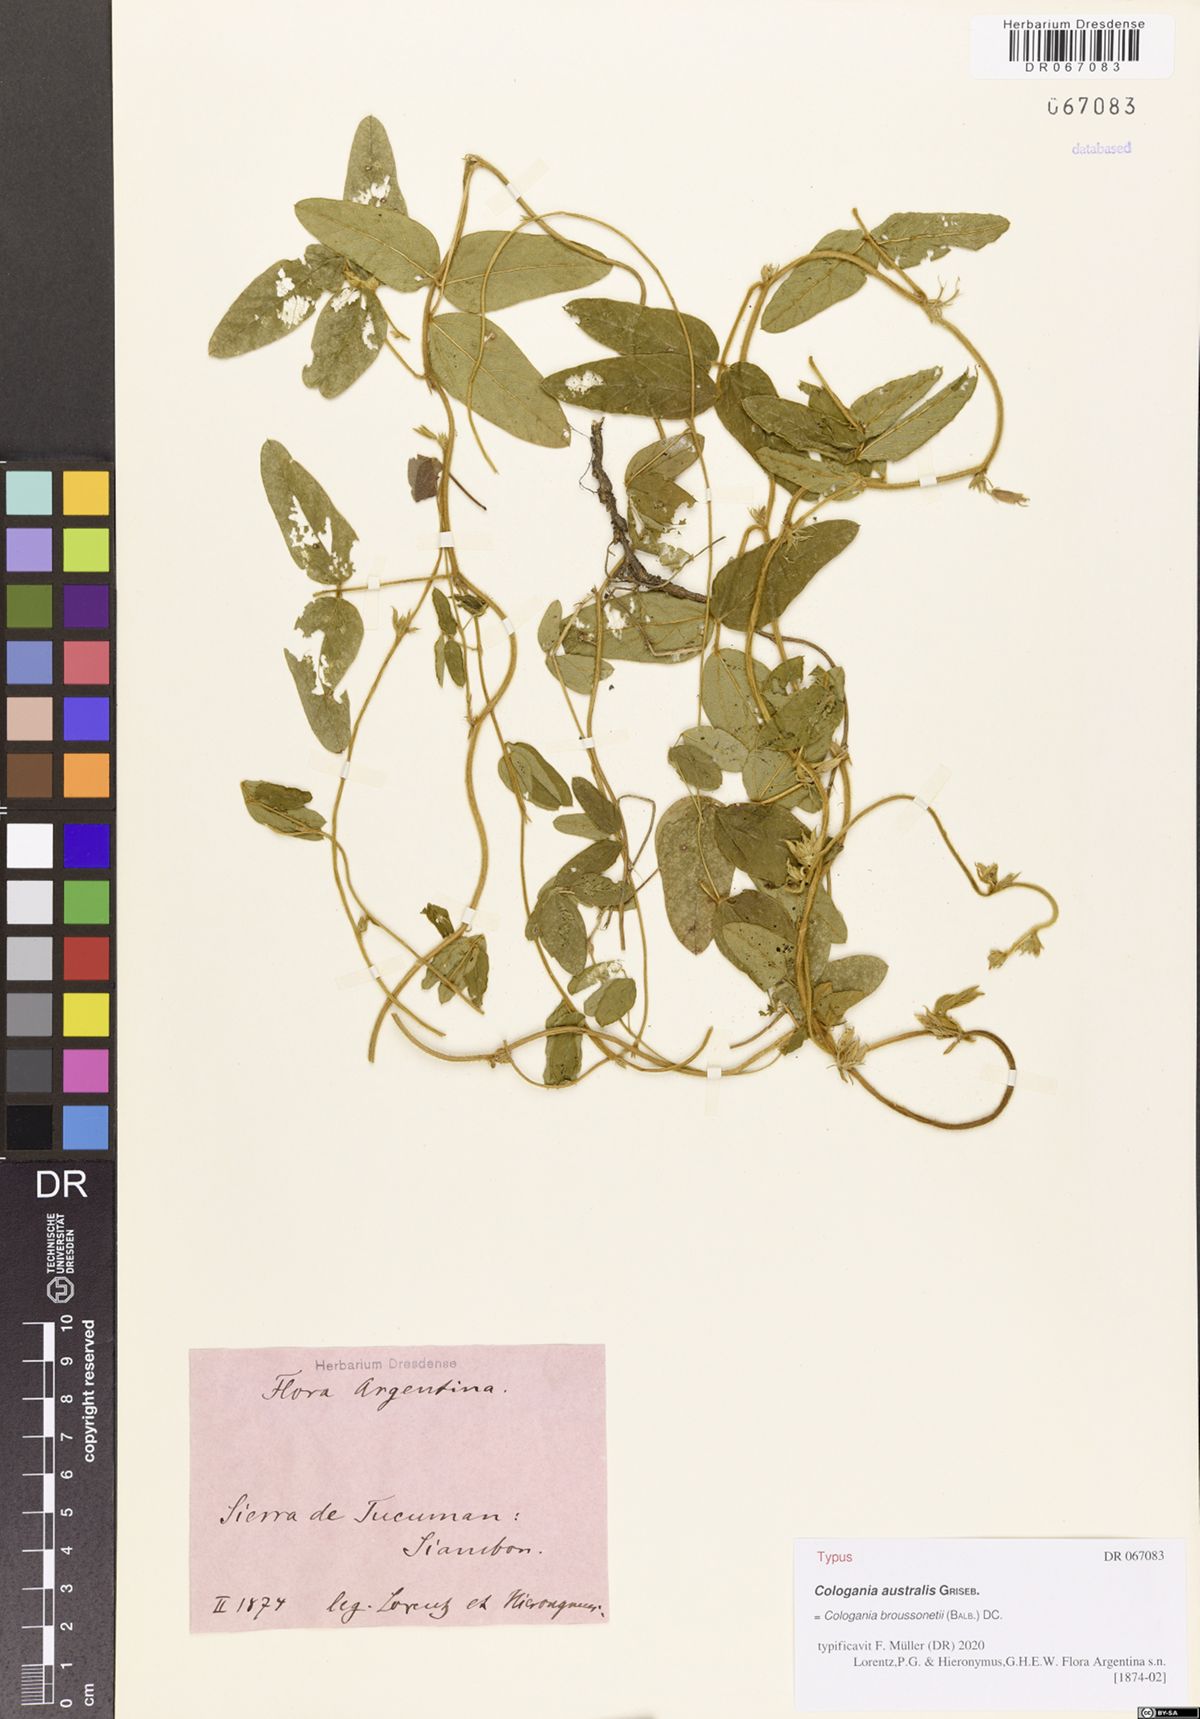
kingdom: Plantae
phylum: Tracheophyta
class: Magnoliopsida
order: Fabales
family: Fabaceae
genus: Cologania
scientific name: Cologania broussonetii
